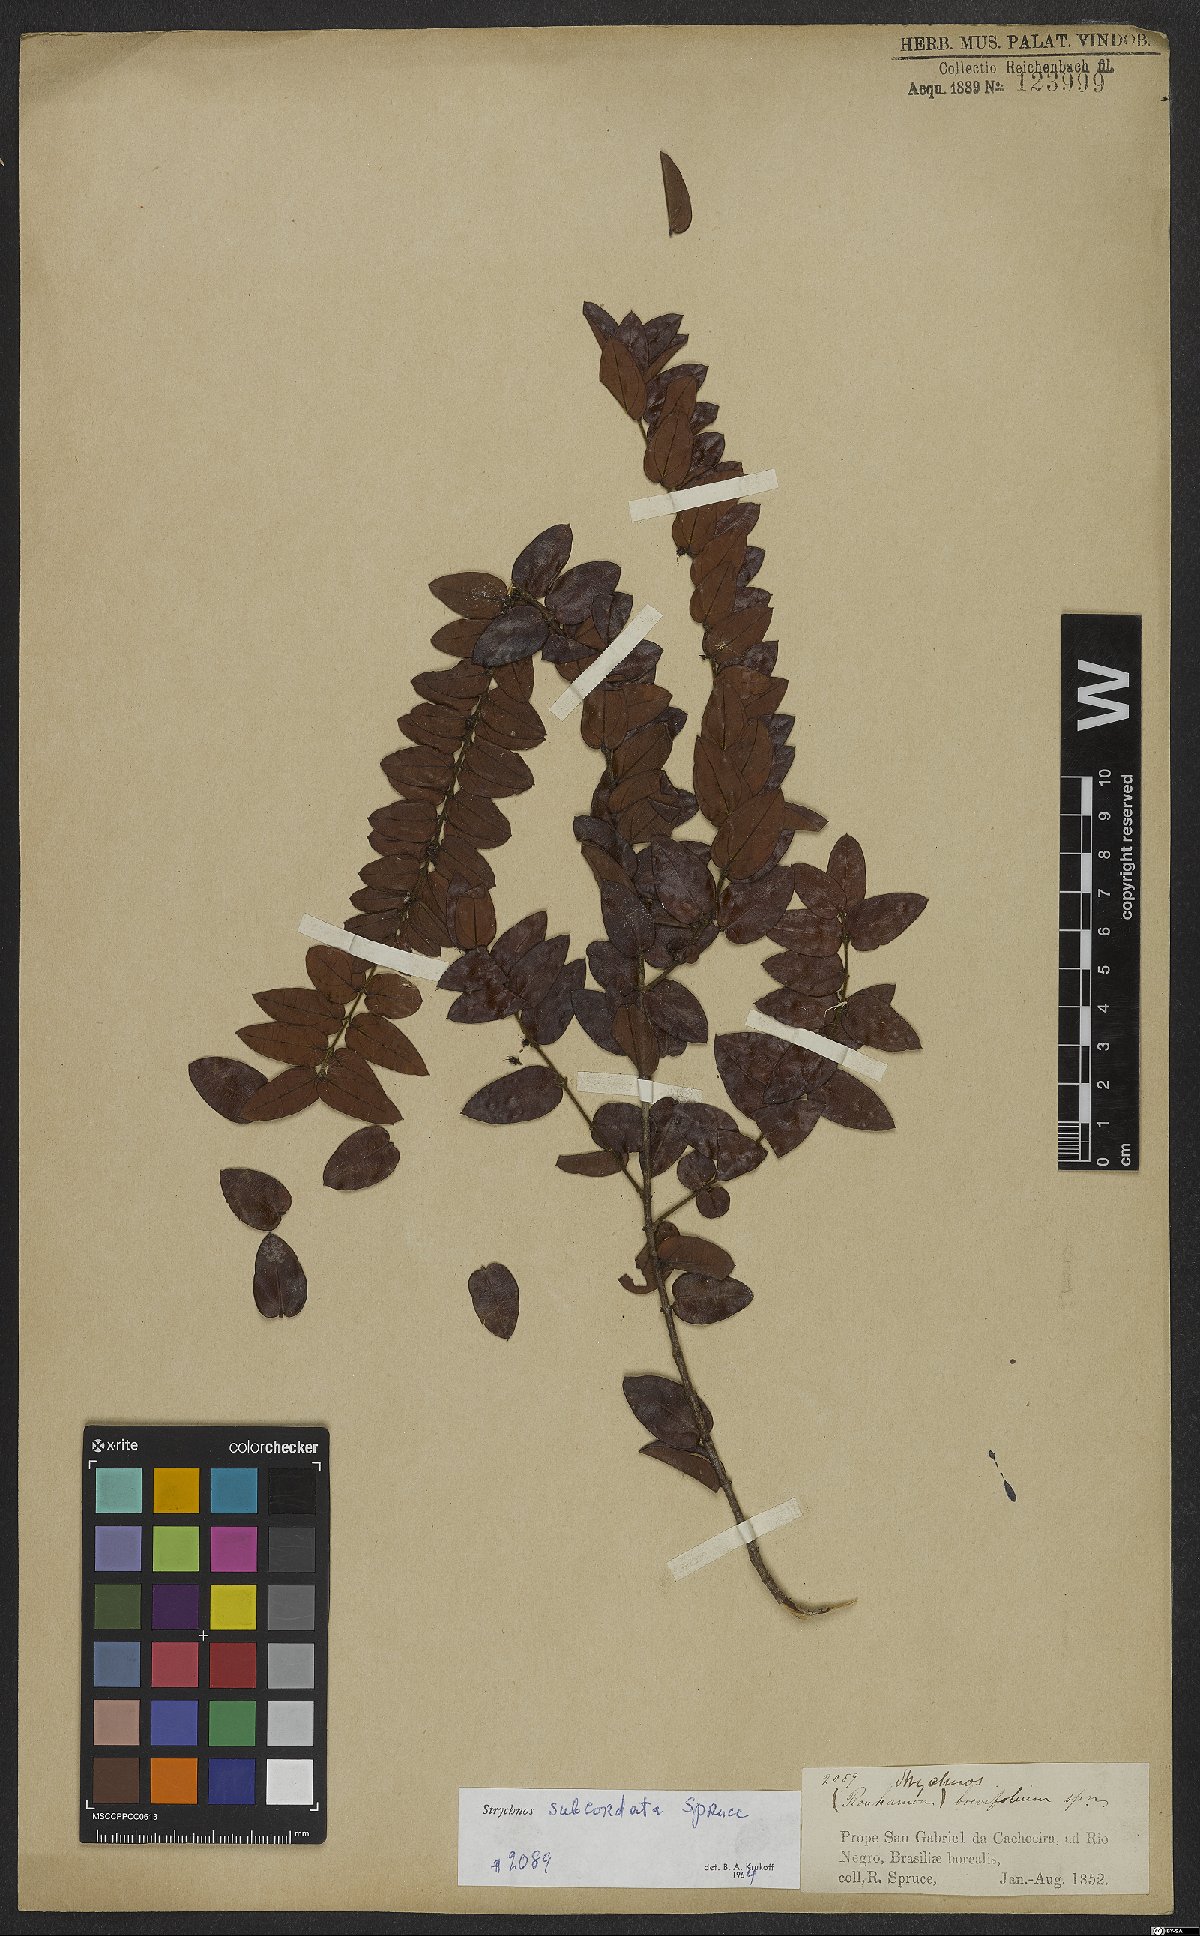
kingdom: Plantae
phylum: Tracheophyta
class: Magnoliopsida
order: Gentianales
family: Loganiaceae
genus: Strychnos
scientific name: Strychnos subcordata
